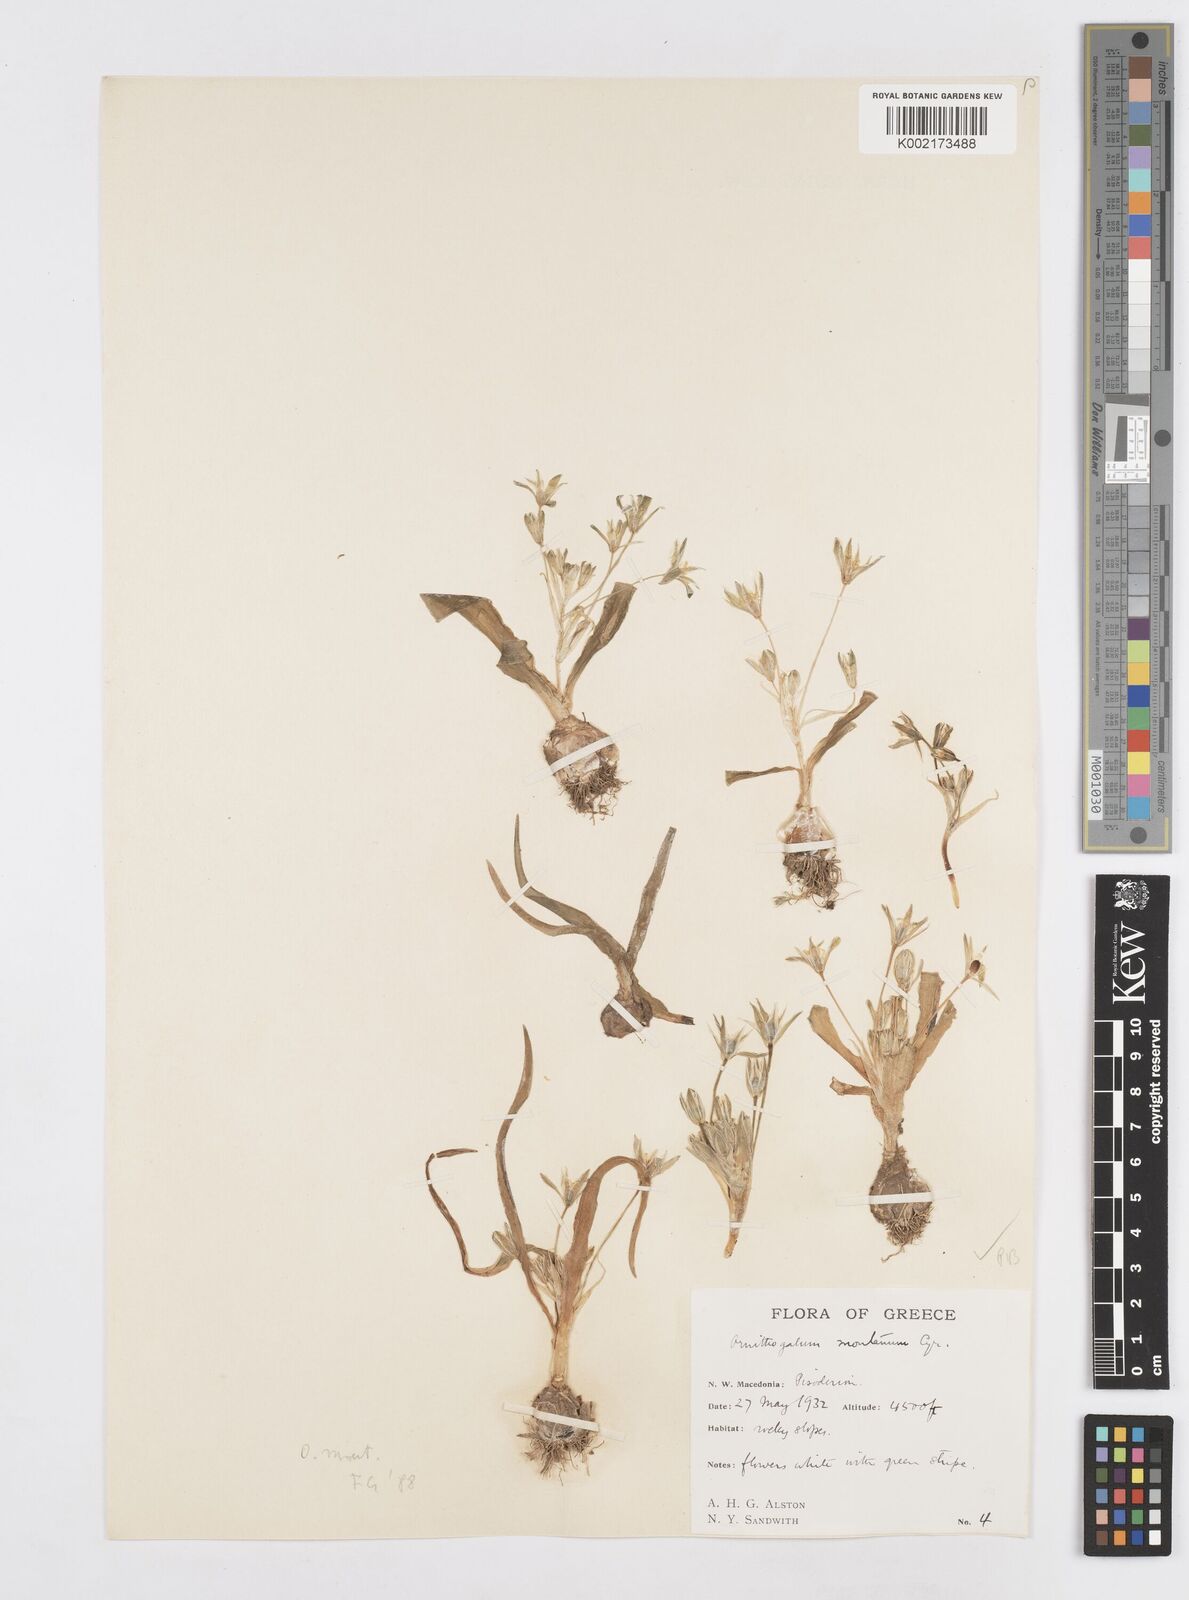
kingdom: Plantae
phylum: Tracheophyta
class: Liliopsida
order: Asparagales
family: Asparagaceae
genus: Ornithogalum
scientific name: Ornithogalum montanum
